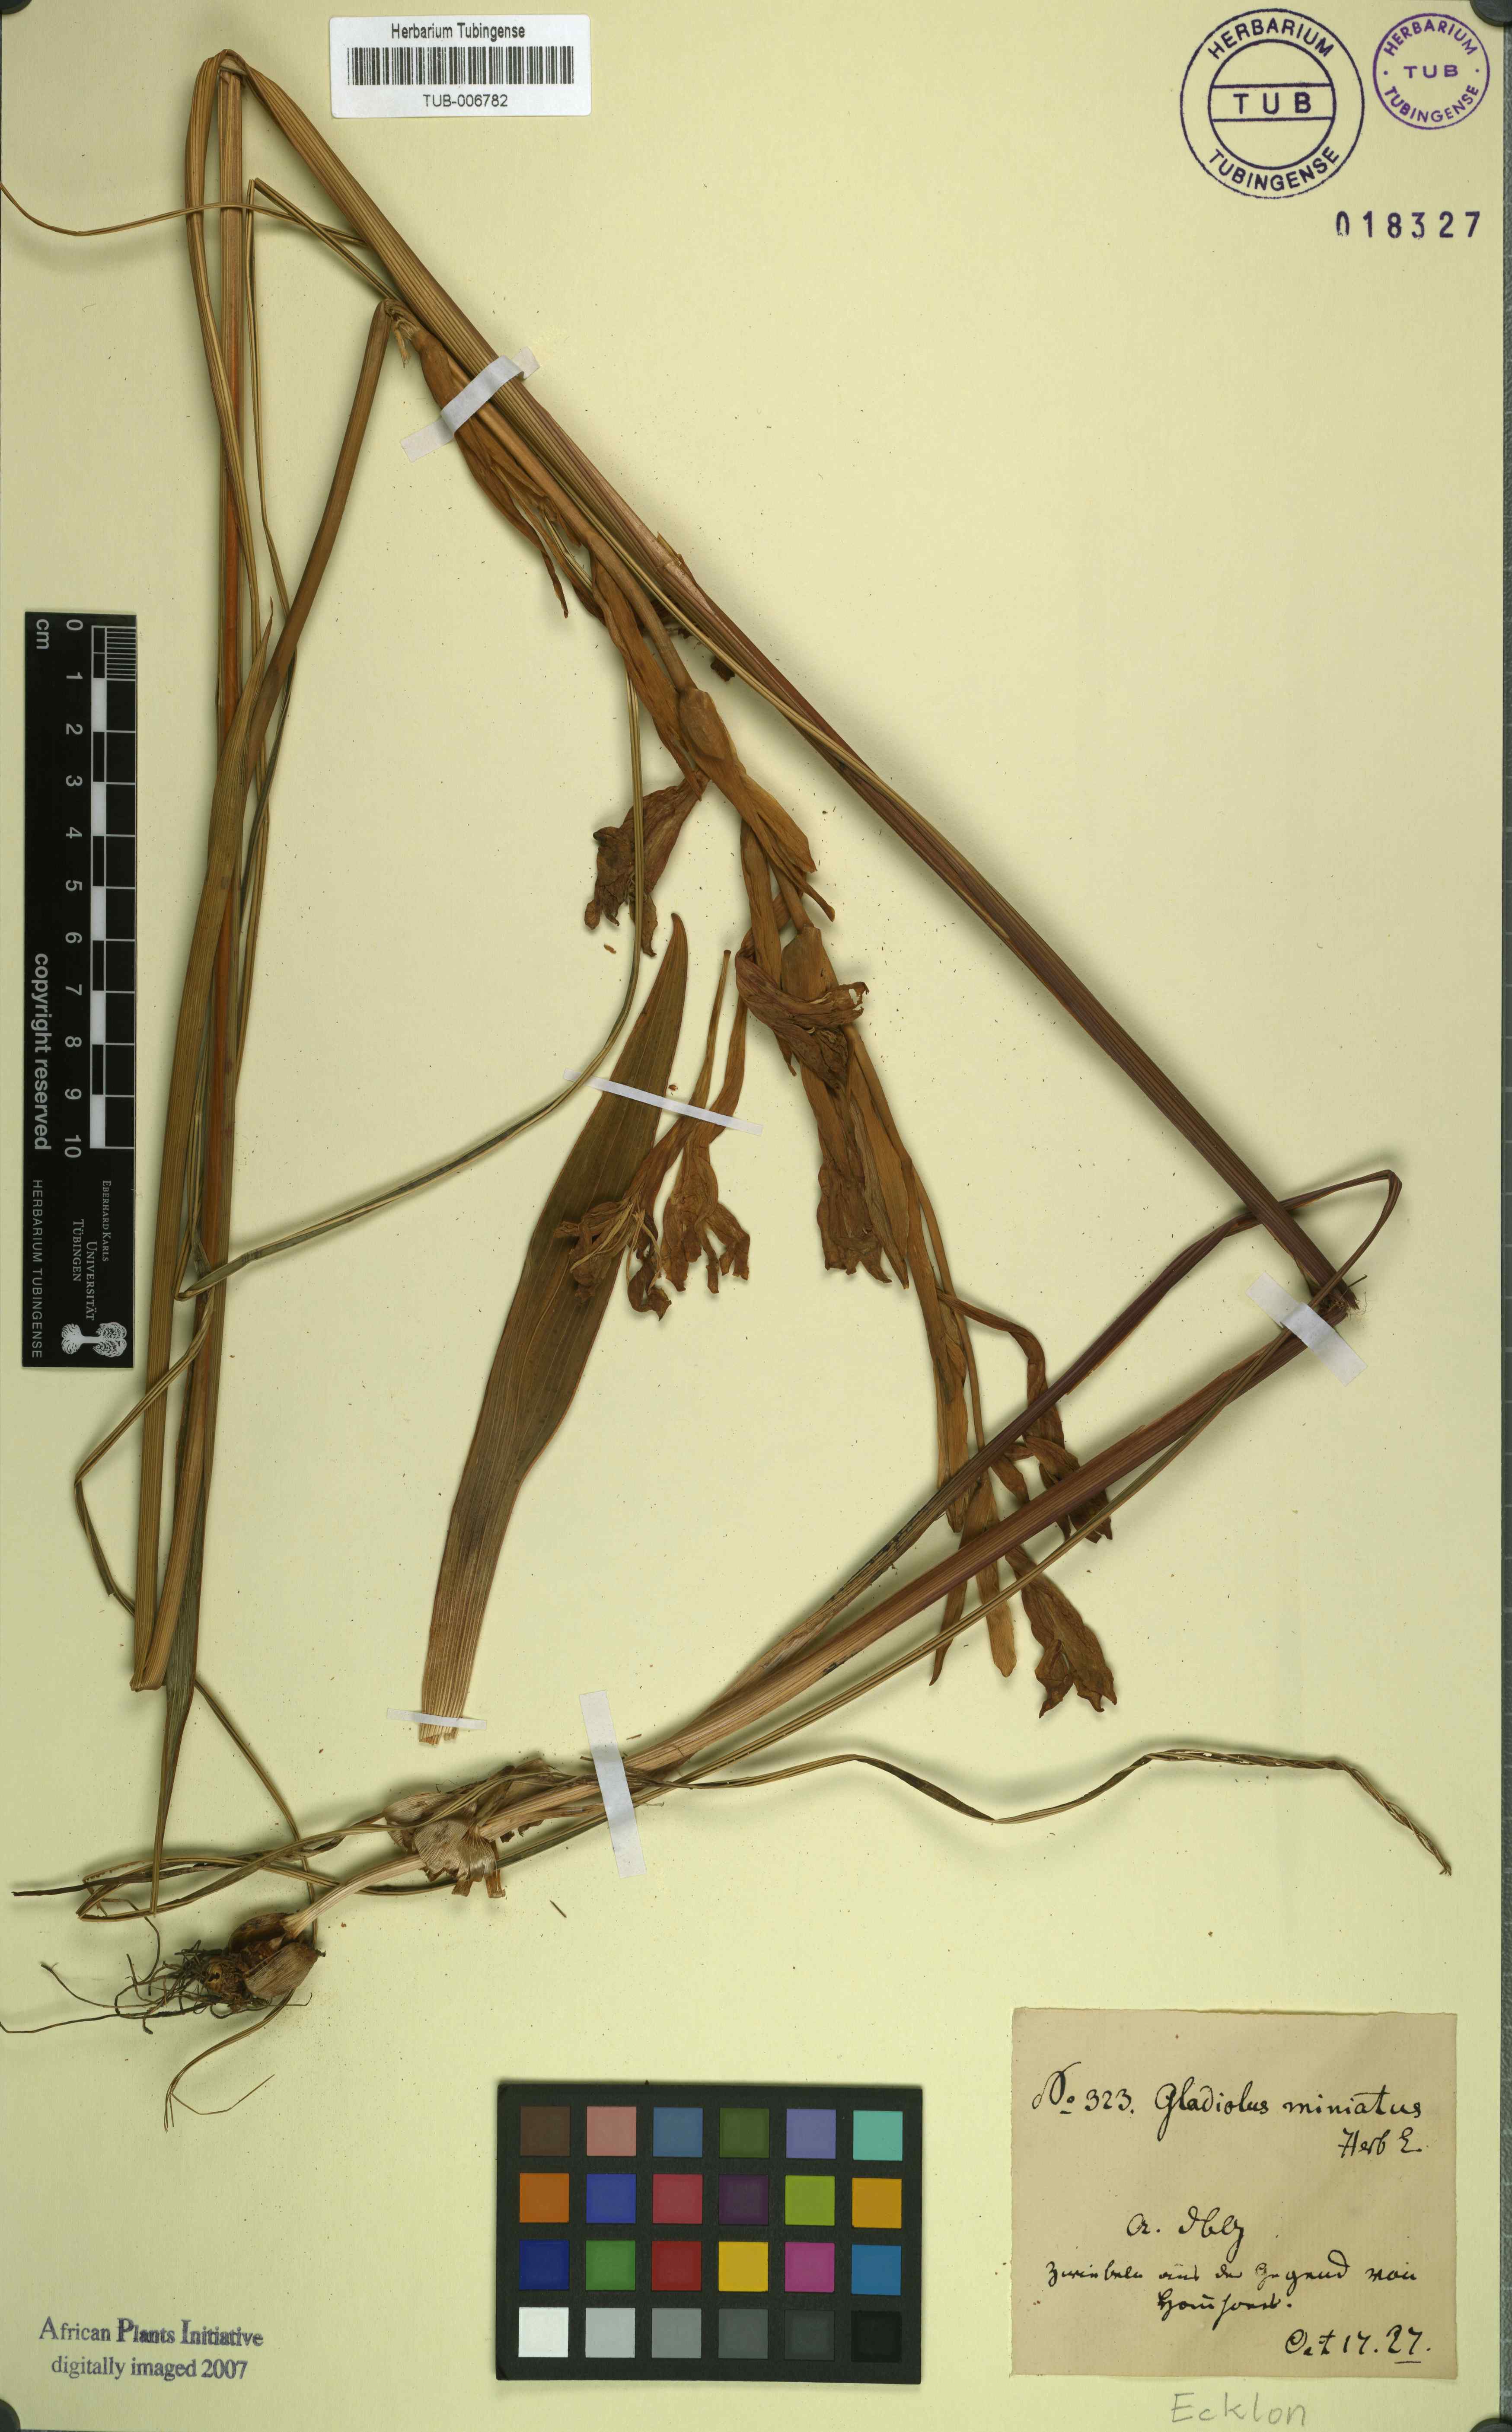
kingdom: Plantae
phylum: Tracheophyta
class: Liliopsida
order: Asparagales
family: Iridaceae
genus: Gladiolus
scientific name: Gladiolus miniatus
